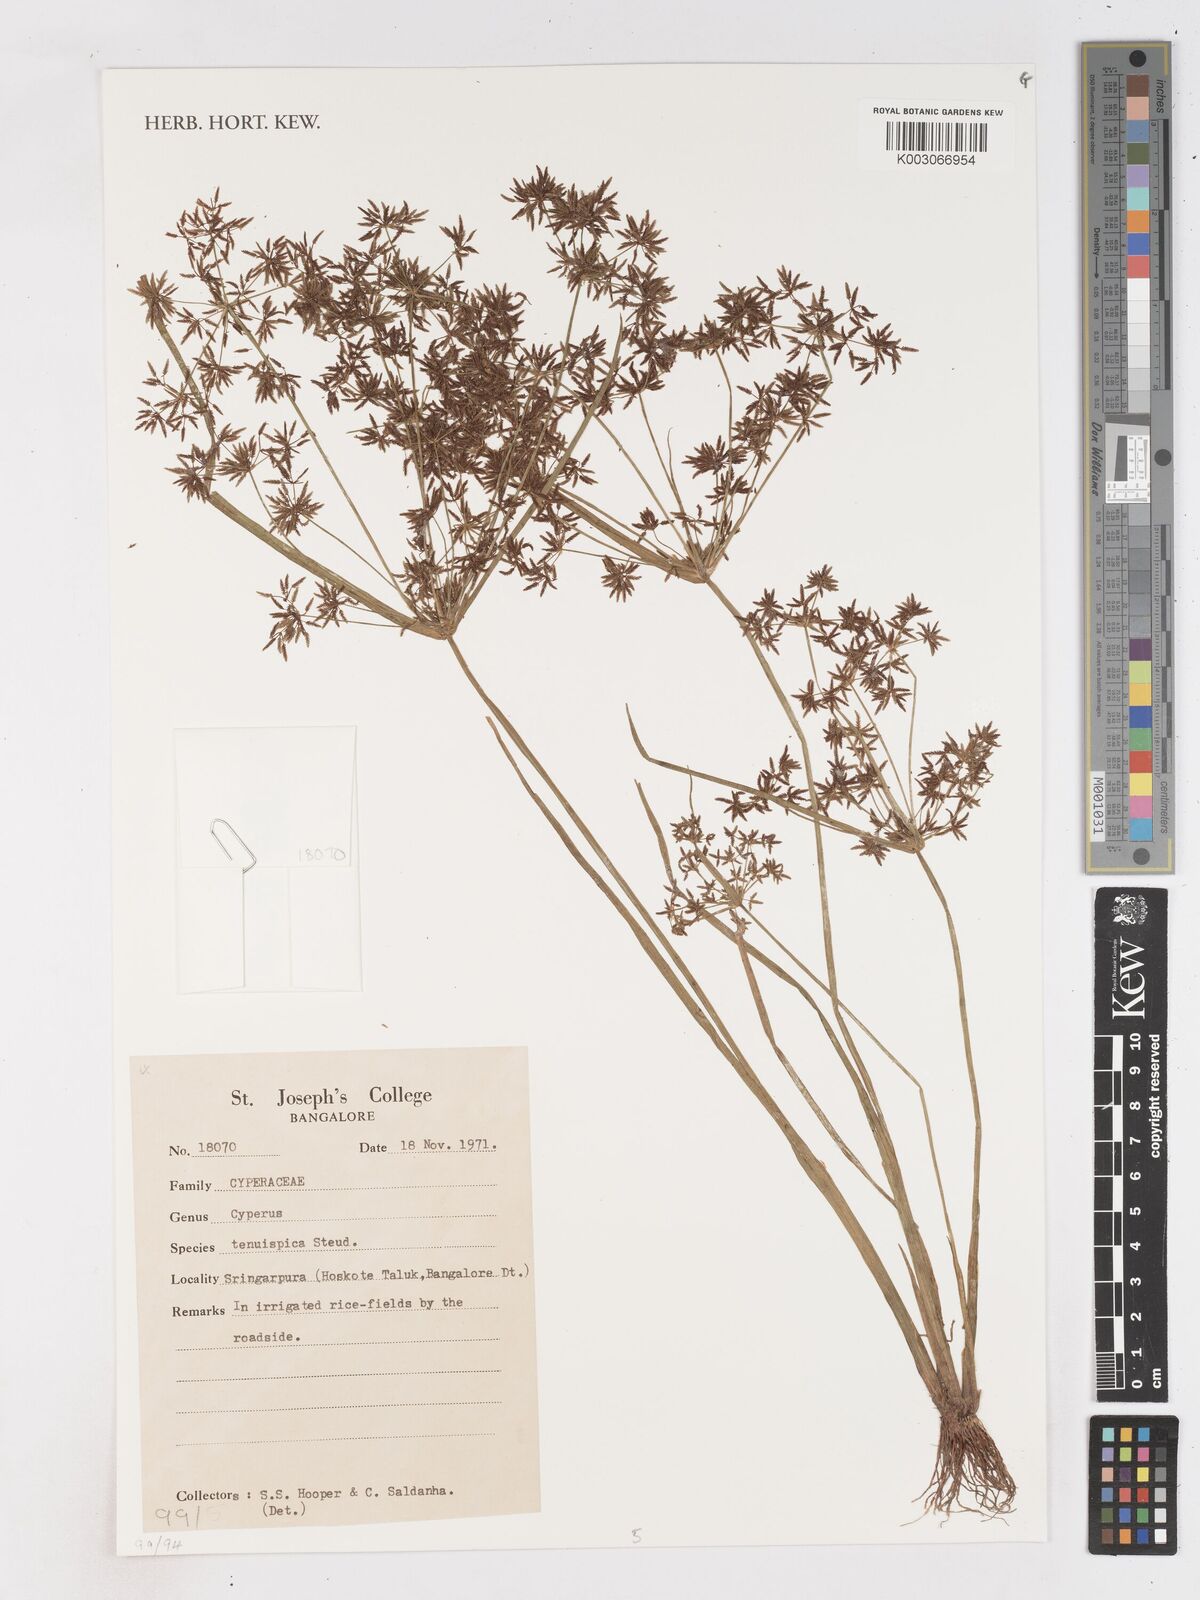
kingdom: Plantae
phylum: Tracheophyta
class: Liliopsida
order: Poales
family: Cyperaceae
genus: Cyperus
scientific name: Cyperus tenuispica
